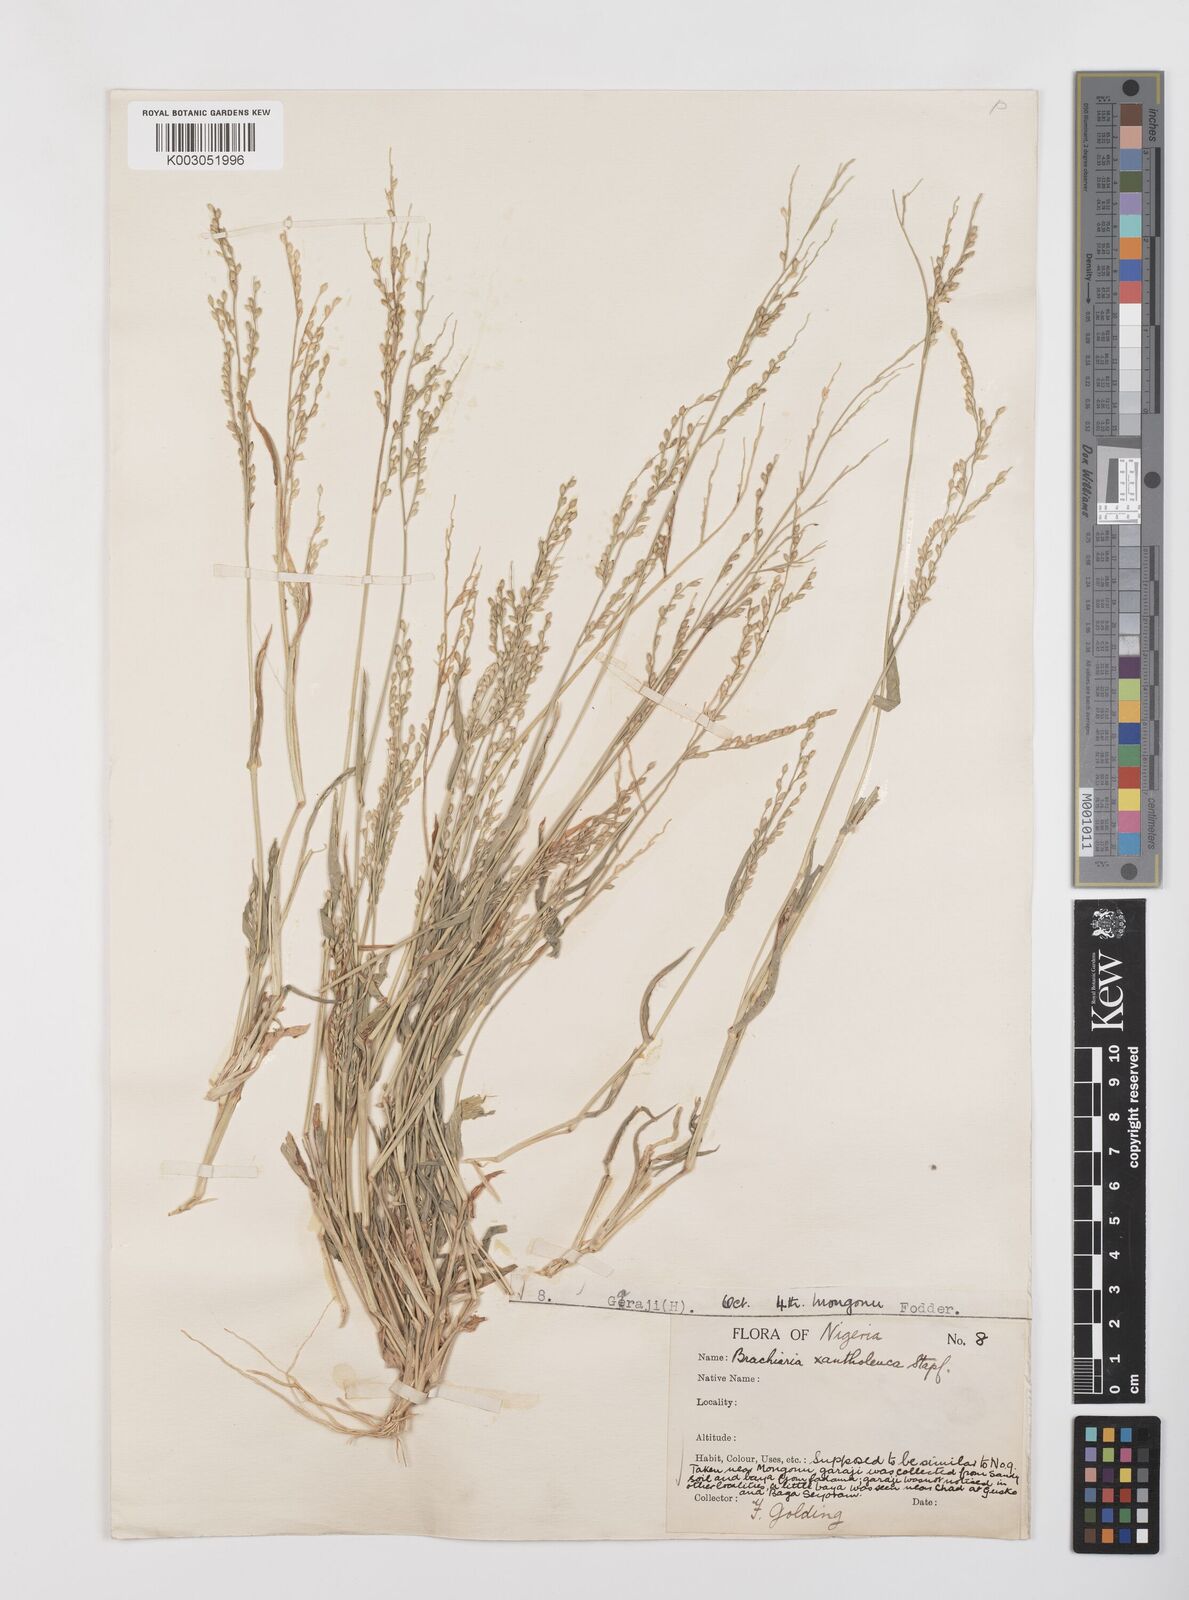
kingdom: Plantae
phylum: Tracheophyta
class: Liliopsida
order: Poales
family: Poaceae
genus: Urochloa
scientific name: Urochloa ramosa
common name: Browntop millet
